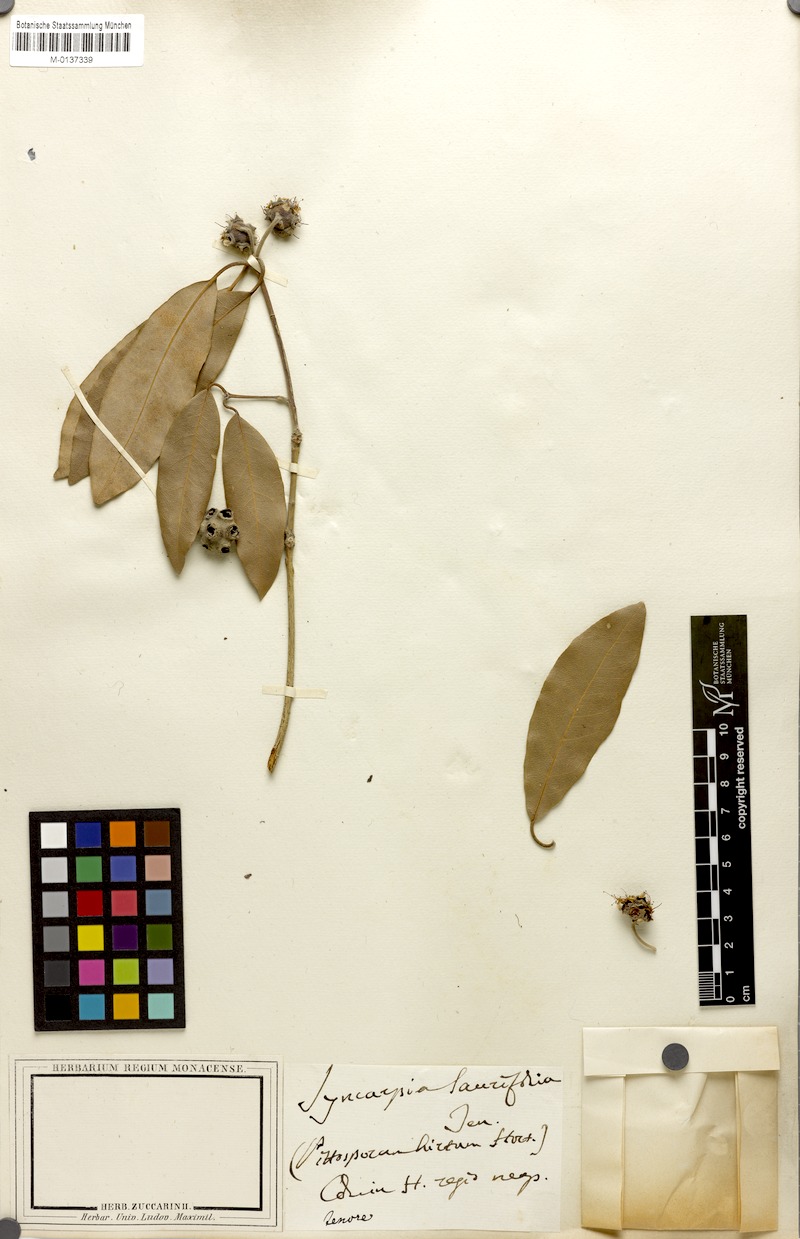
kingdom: Plantae
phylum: Tracheophyta
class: Magnoliopsida
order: Myrtales
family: Myrtaceae
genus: Syncarpia
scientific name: Syncarpia glomulifera
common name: Turpentine tree
